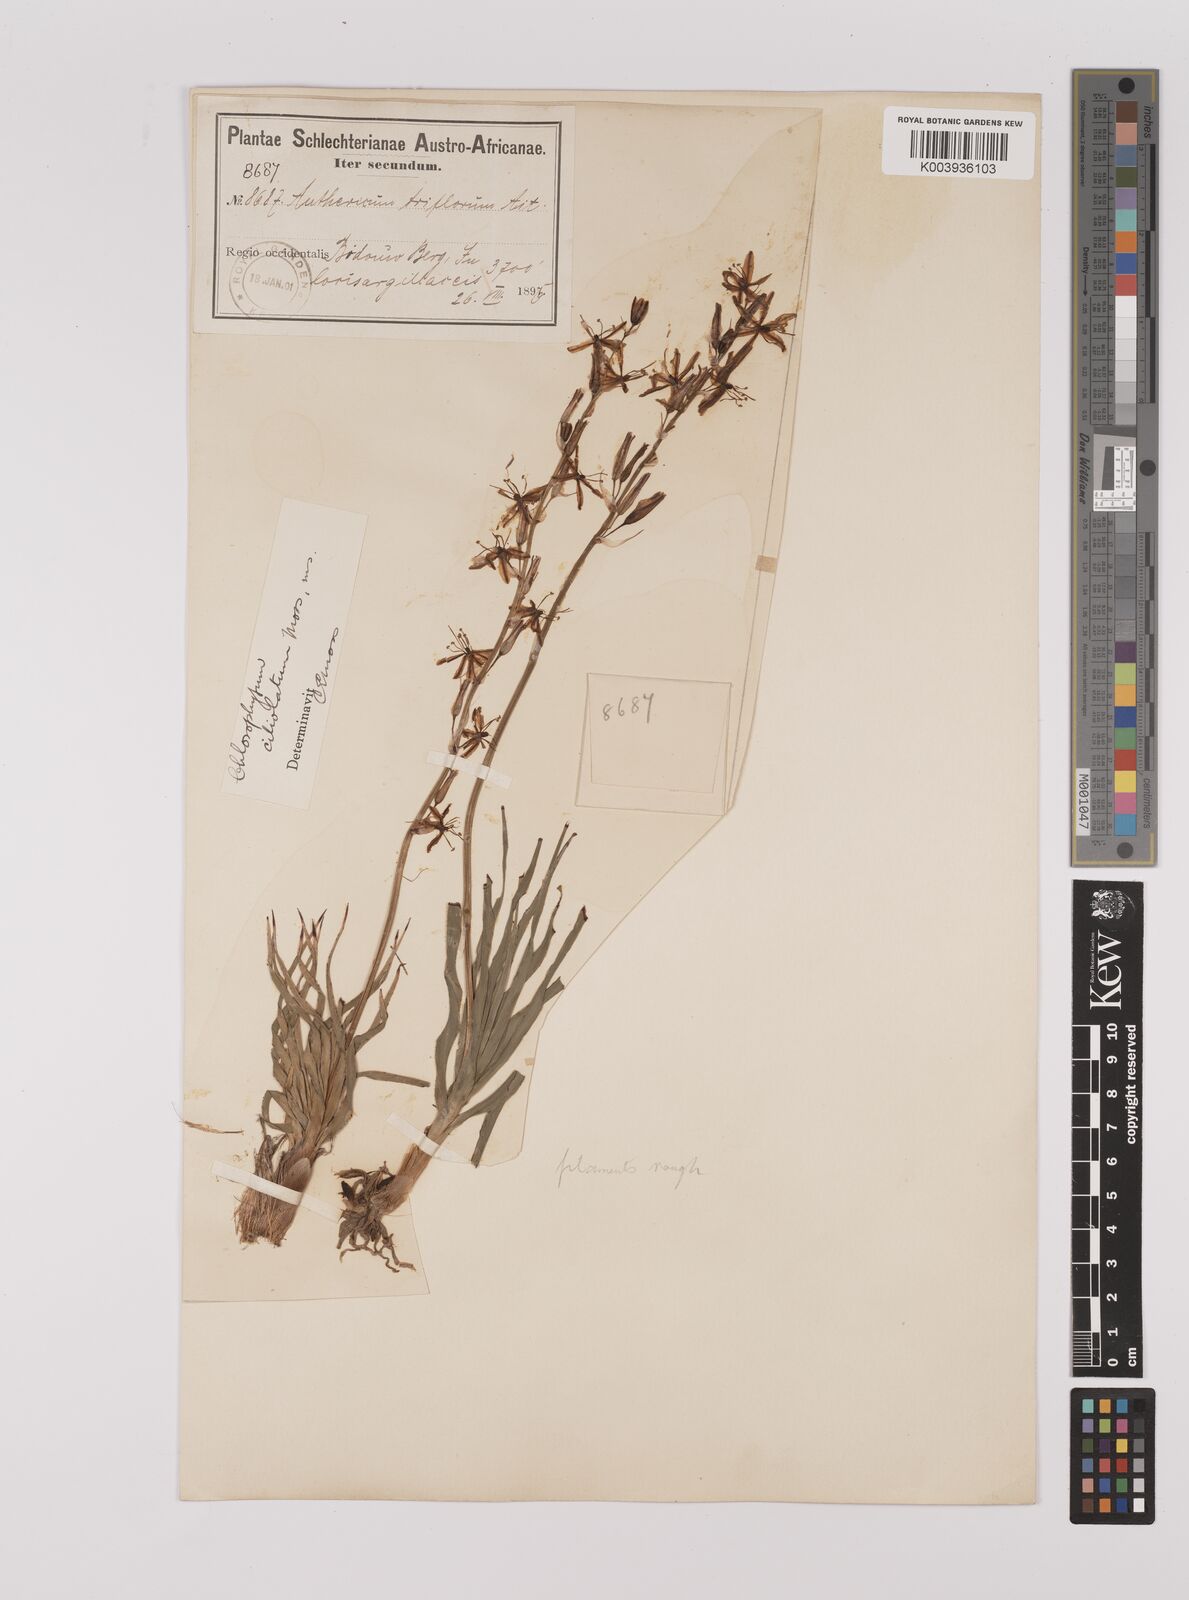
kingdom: Plantae
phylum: Tracheophyta
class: Liliopsida
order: Asparagales
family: Asparagaceae
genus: Chlorophytum
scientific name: Chlorophytum triflorum
